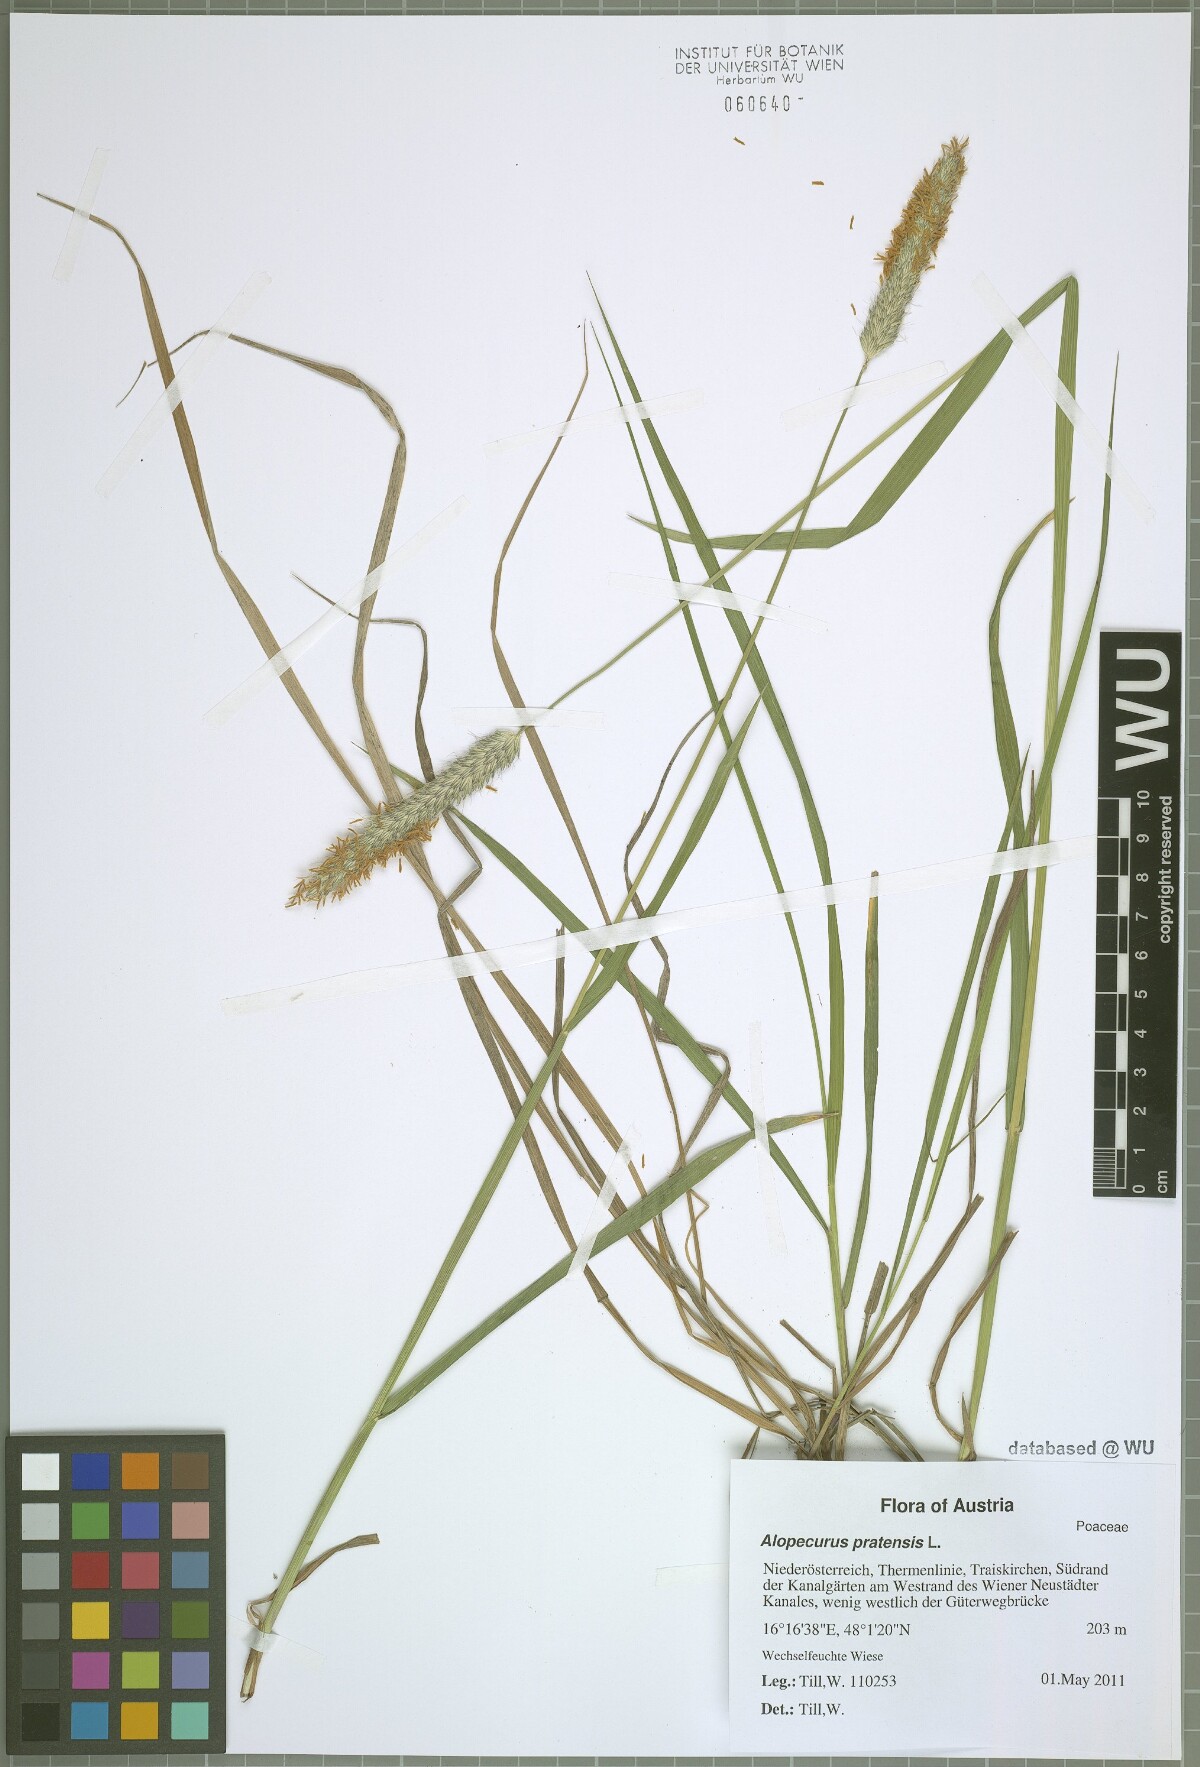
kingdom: Plantae
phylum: Tracheophyta
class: Liliopsida
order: Poales
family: Poaceae
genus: Alopecurus
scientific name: Alopecurus pratensis
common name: Meadow foxtail
